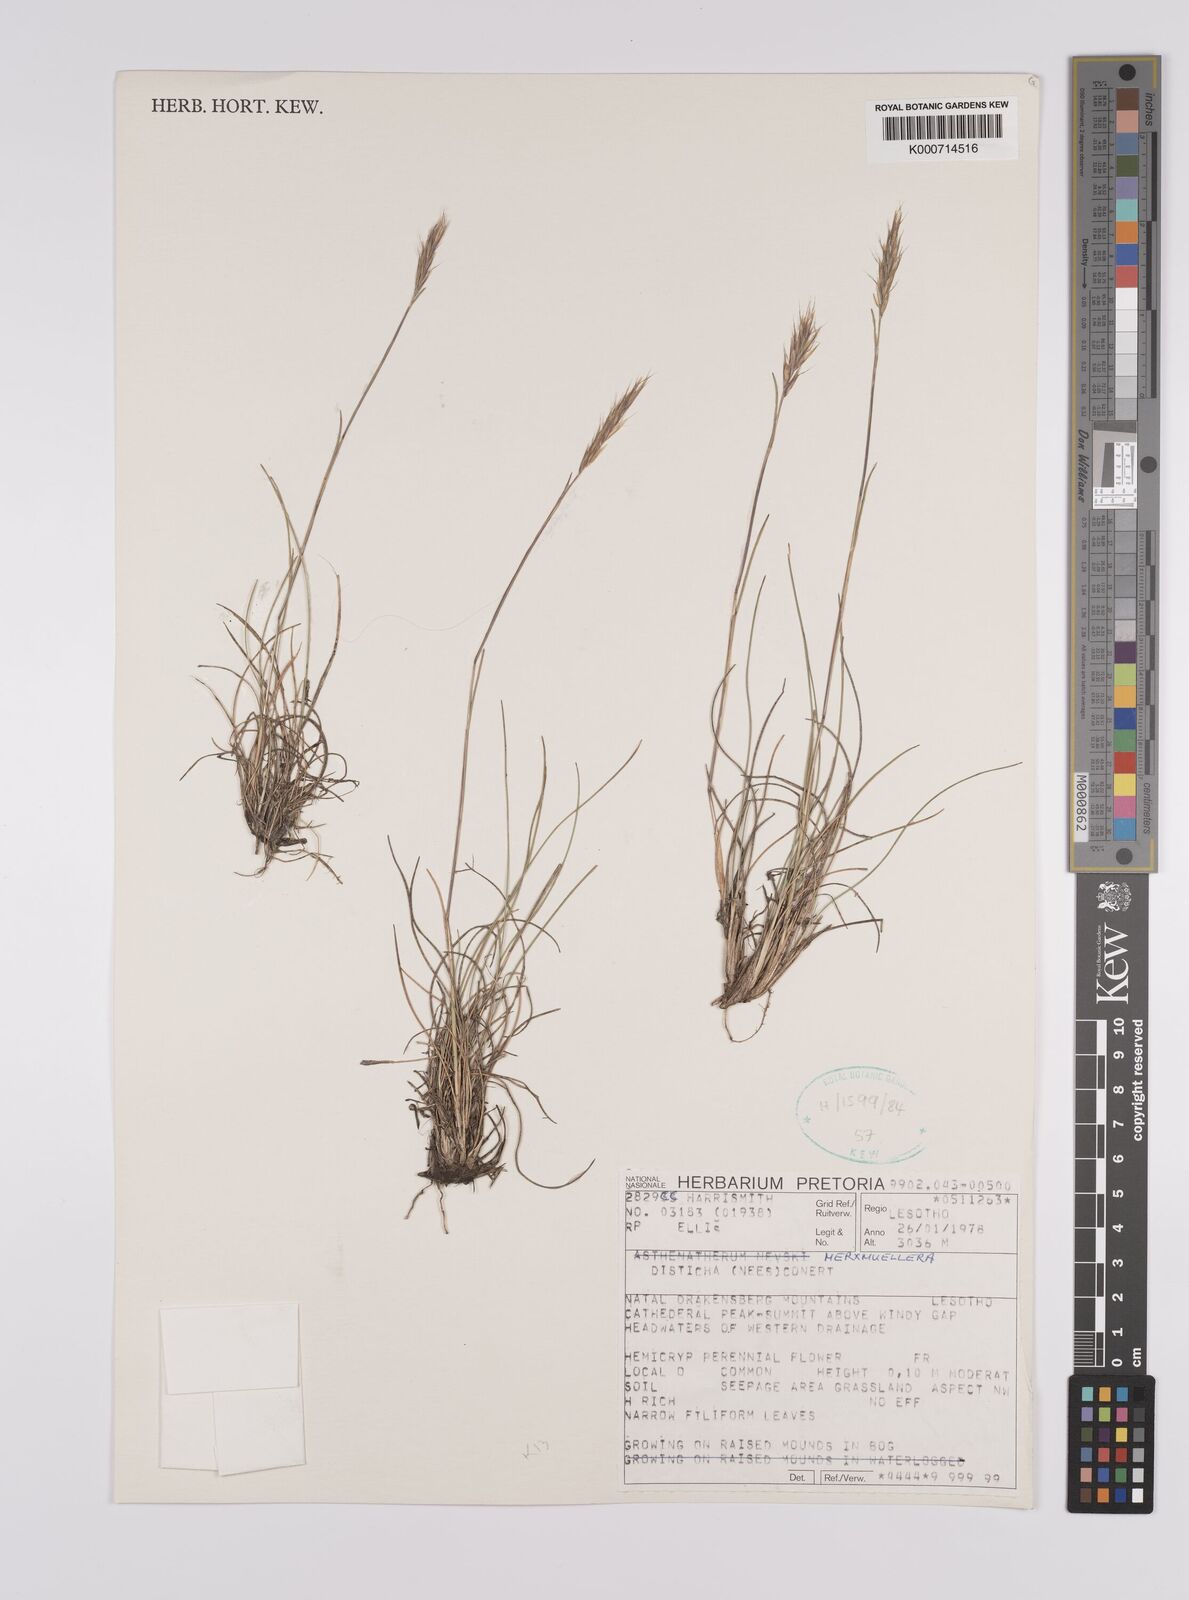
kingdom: Plantae
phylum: Tracheophyta
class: Liliopsida
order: Poales
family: Poaceae
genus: Tenaxia
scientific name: Tenaxia disticha
